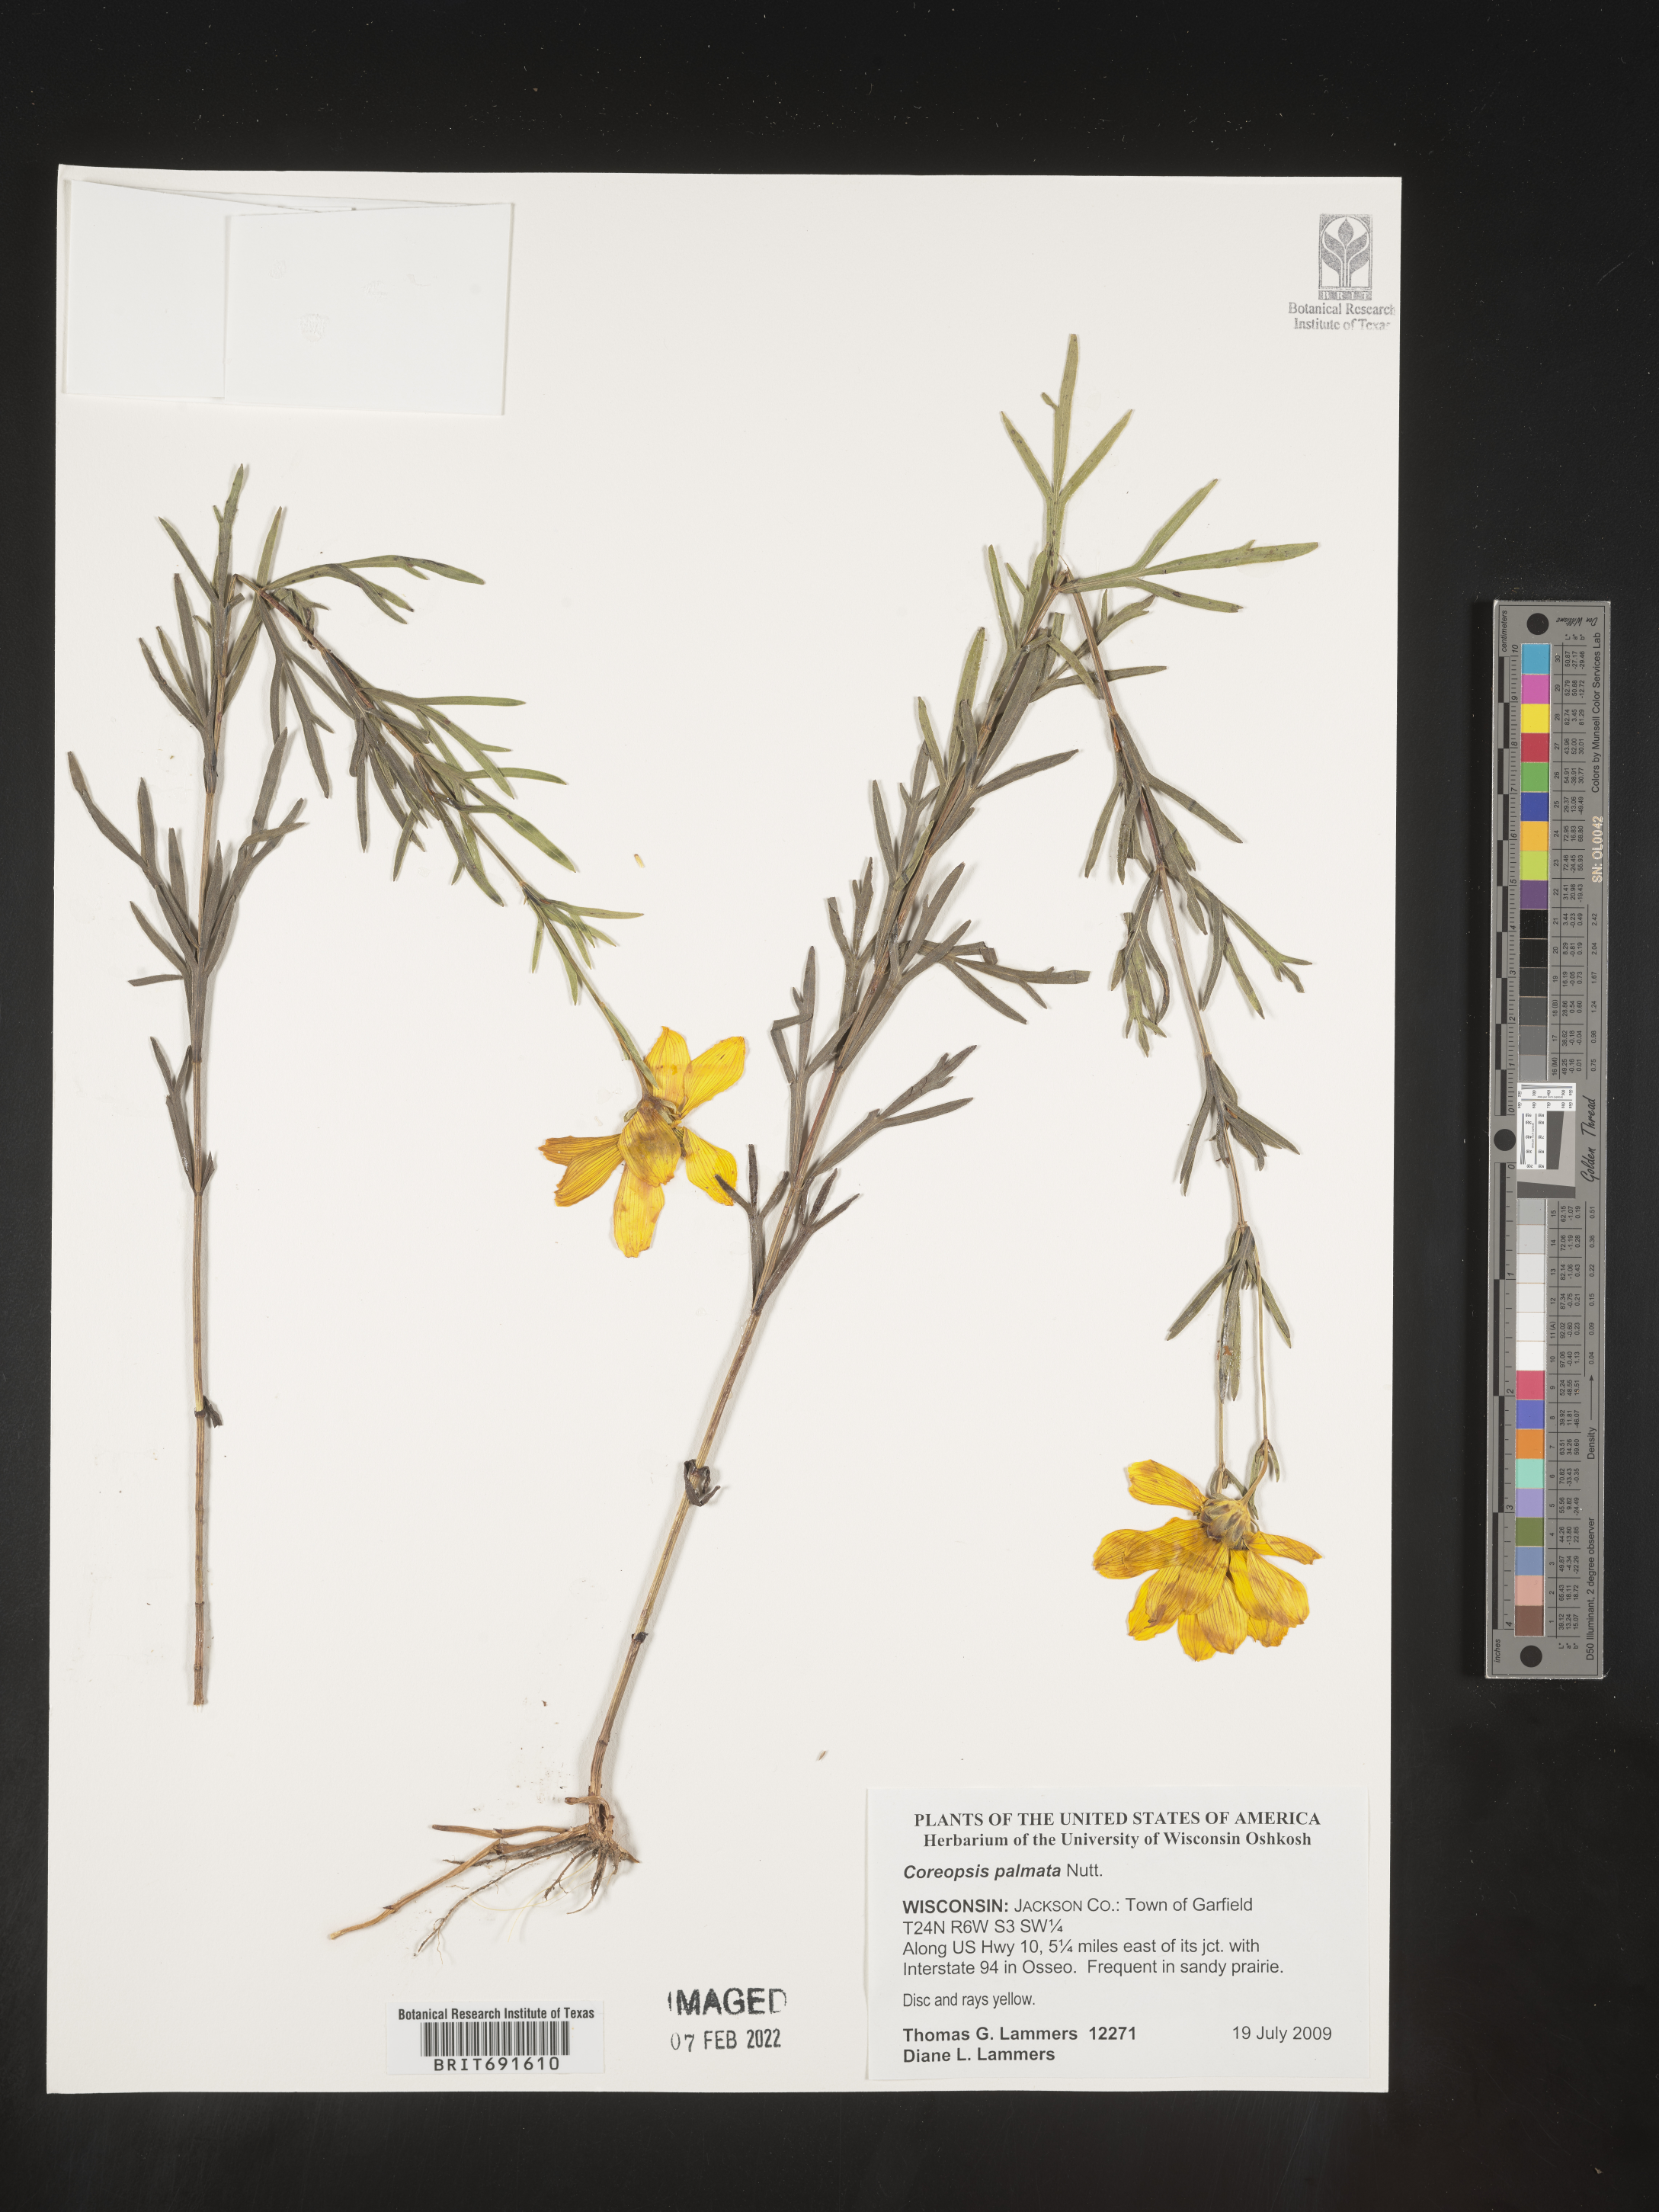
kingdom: Plantae
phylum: Tracheophyta
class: Magnoliopsida
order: Asterales
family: Asteraceae
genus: Coreopsis
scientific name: Coreopsis palmata
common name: Prairie coreopsis
